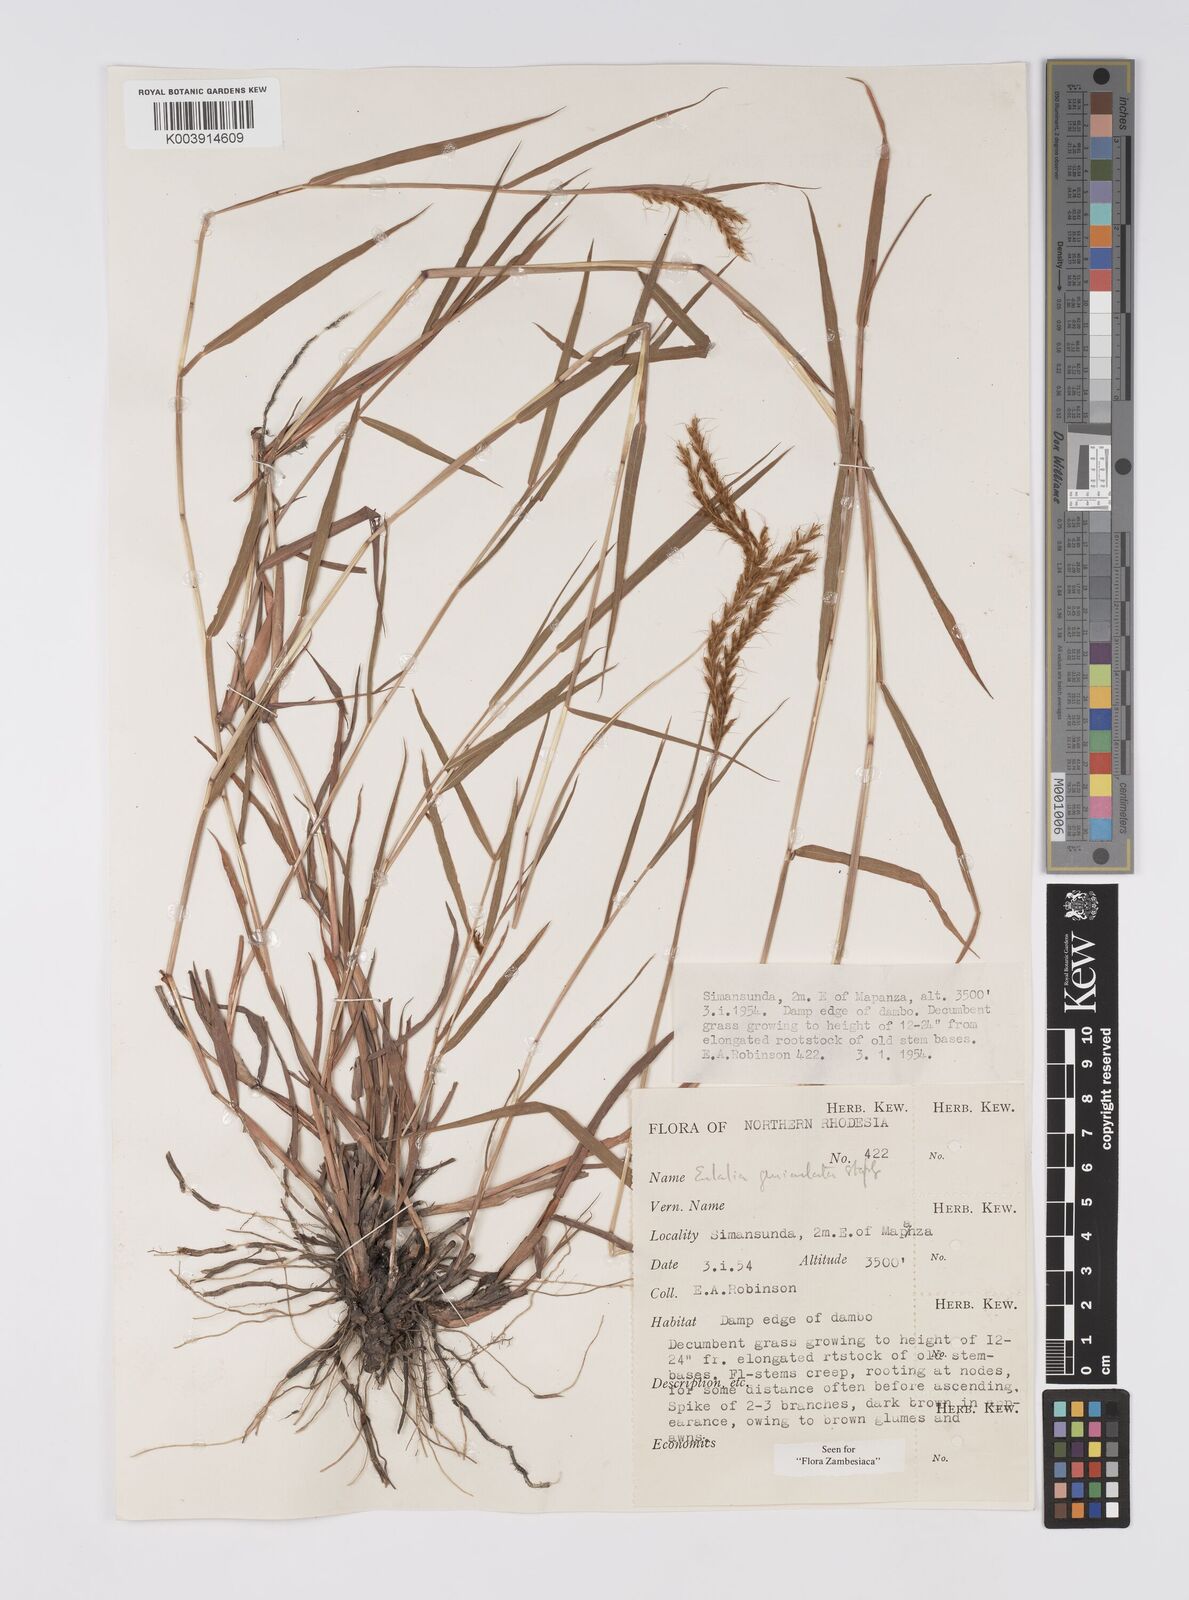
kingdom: Plantae
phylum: Tracheophyta
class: Liliopsida
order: Poales
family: Poaceae
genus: Eulalia
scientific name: Eulalia aurea
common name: Silky browntop
